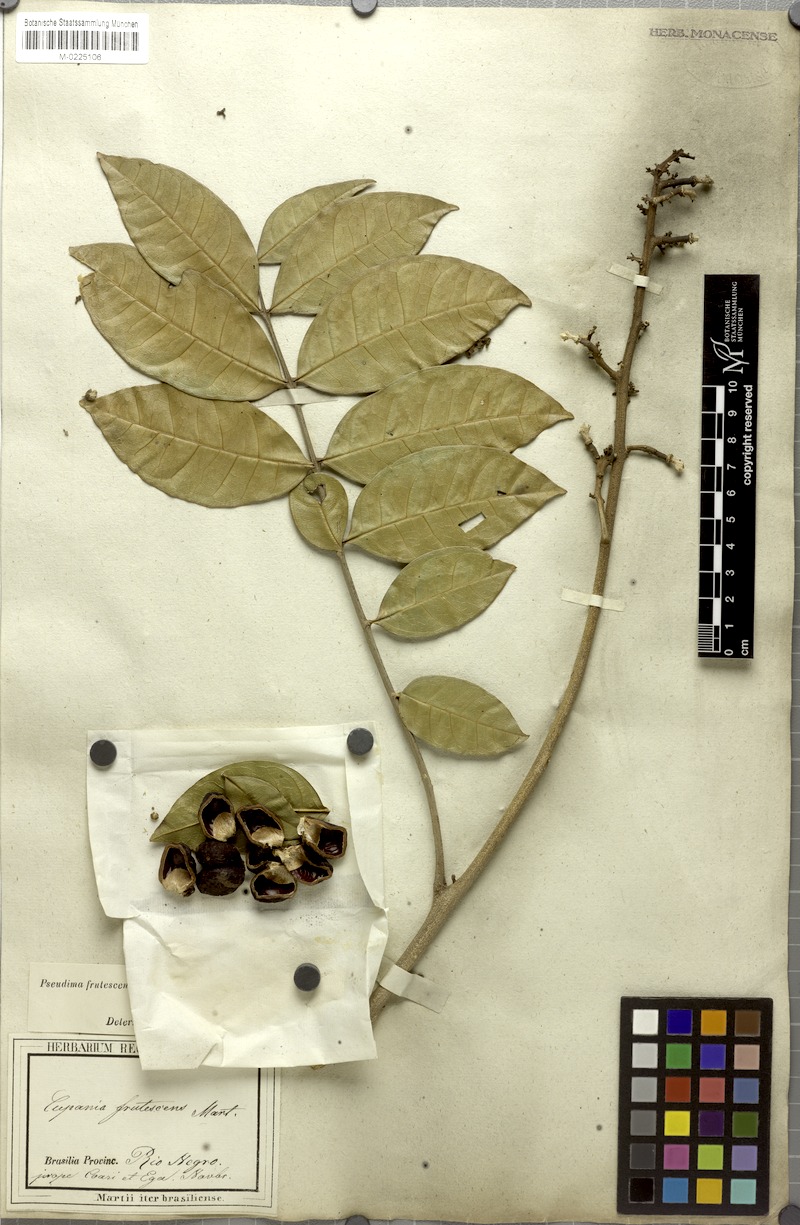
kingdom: Plantae
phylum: Tracheophyta
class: Magnoliopsida
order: Sapindales
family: Sapindaceae
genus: Pseudima
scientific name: Pseudima frutescens
